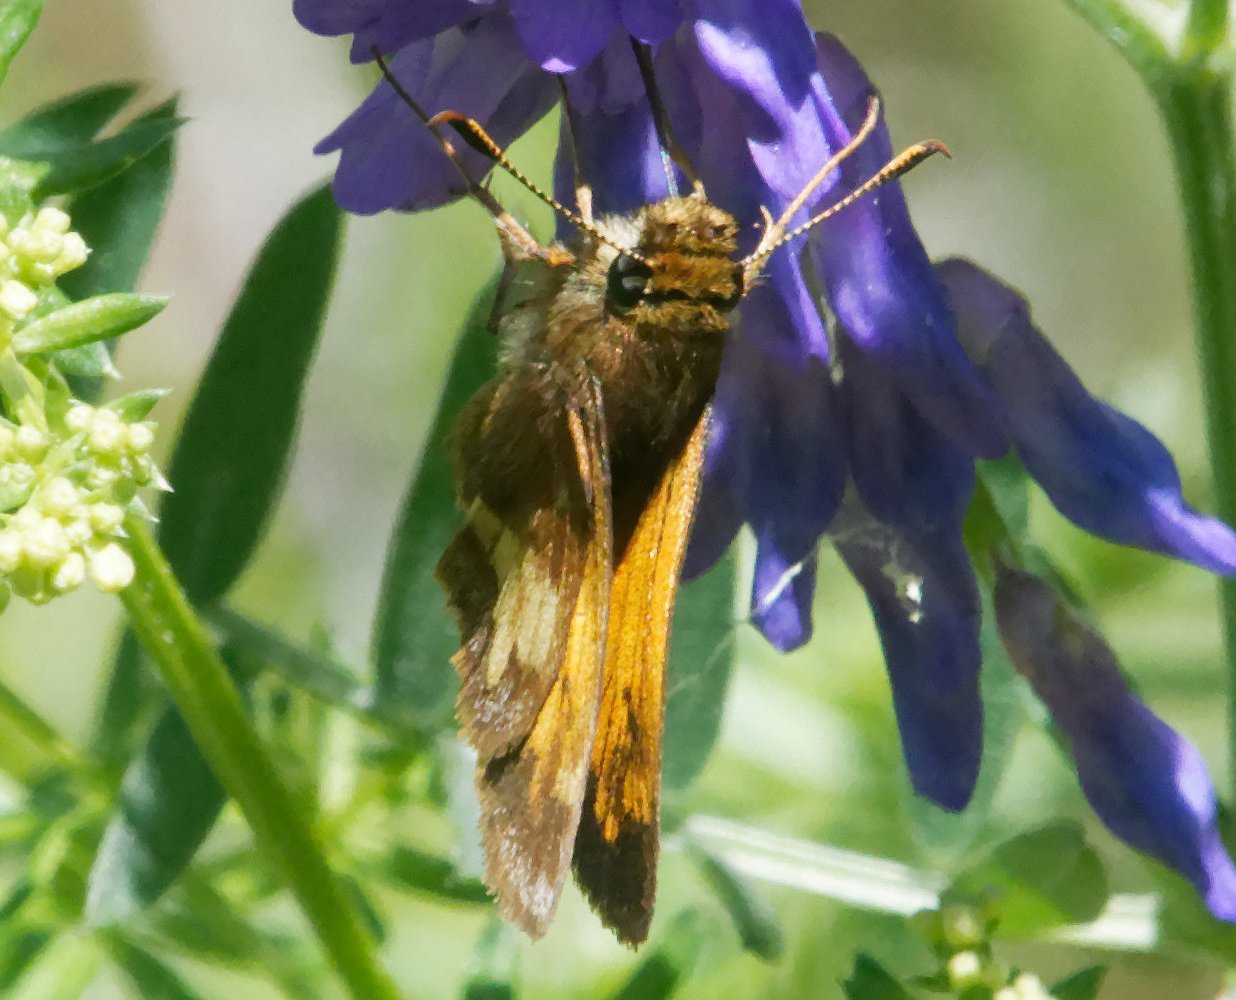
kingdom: Animalia
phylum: Arthropoda
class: Insecta
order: Lepidoptera
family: Hesperiidae
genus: Lon
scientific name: Lon hobomok
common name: Hobomok Skipper
